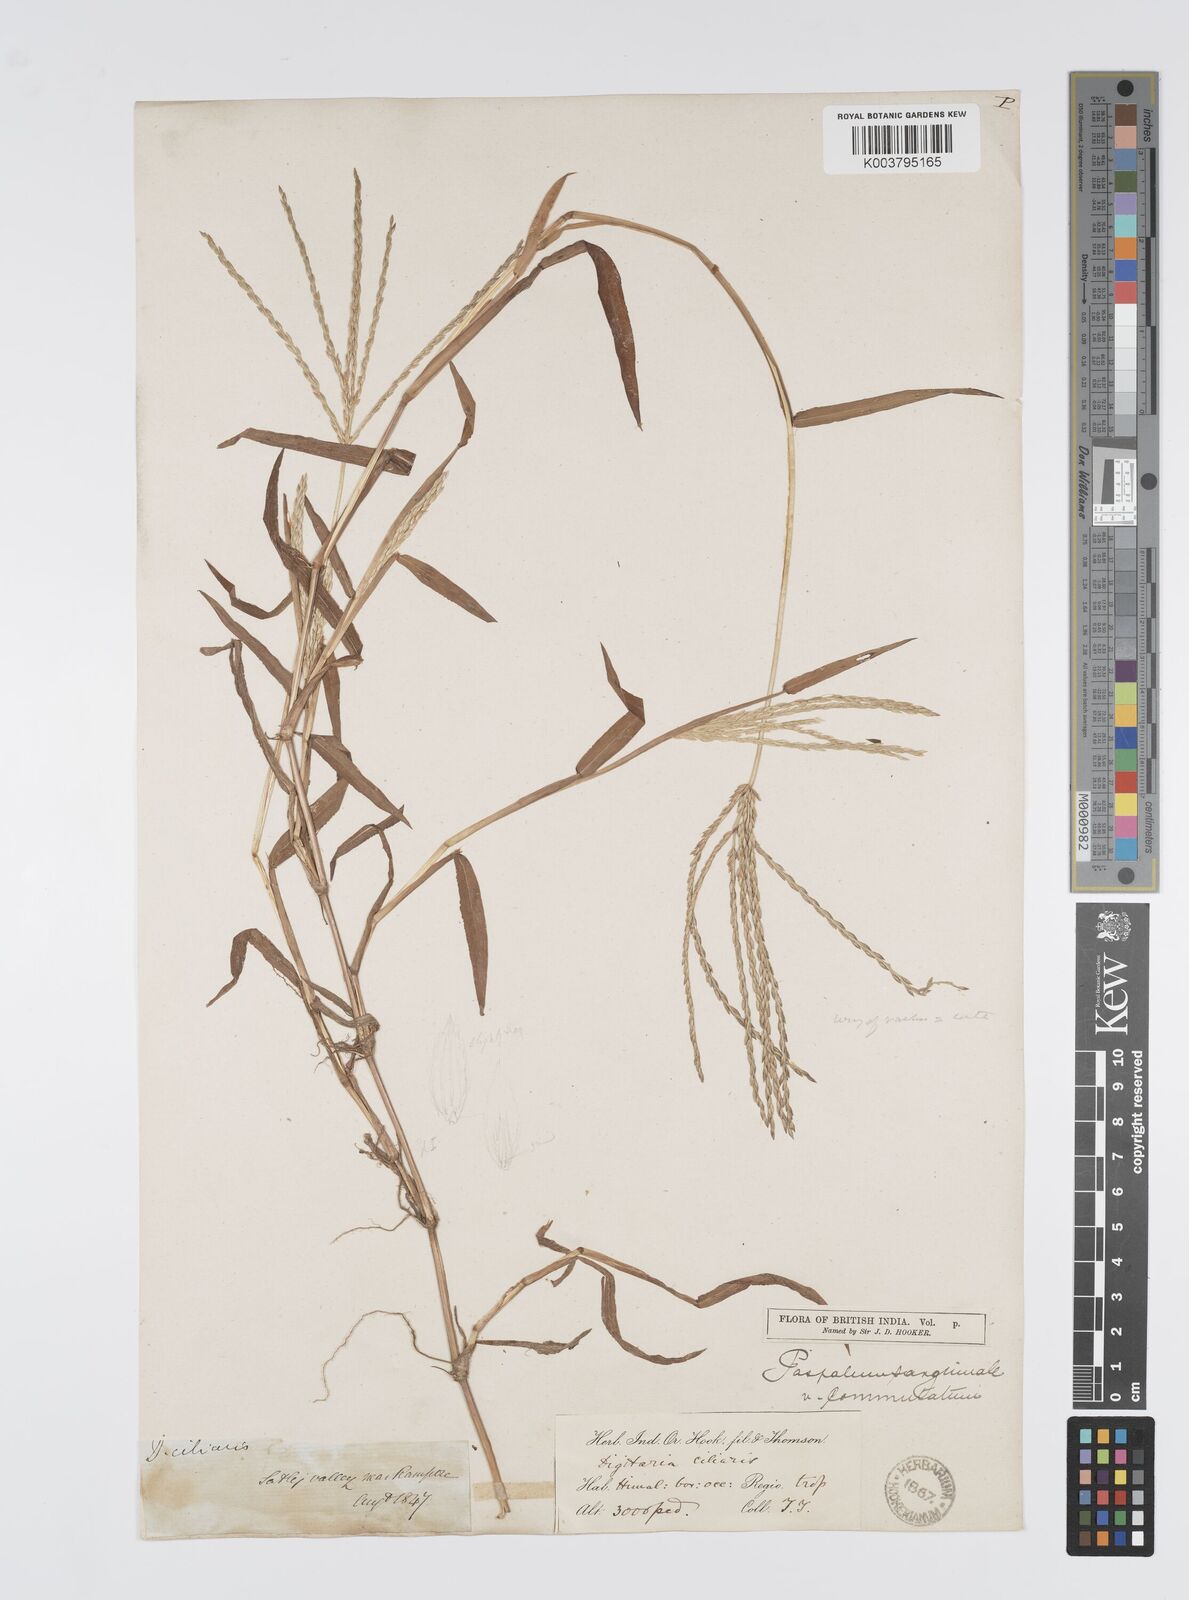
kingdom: Plantae
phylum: Tracheophyta
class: Liliopsida
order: Poales
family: Poaceae
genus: Digitaria
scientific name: Digitaria ciliaris
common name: Tropical finger-grass
